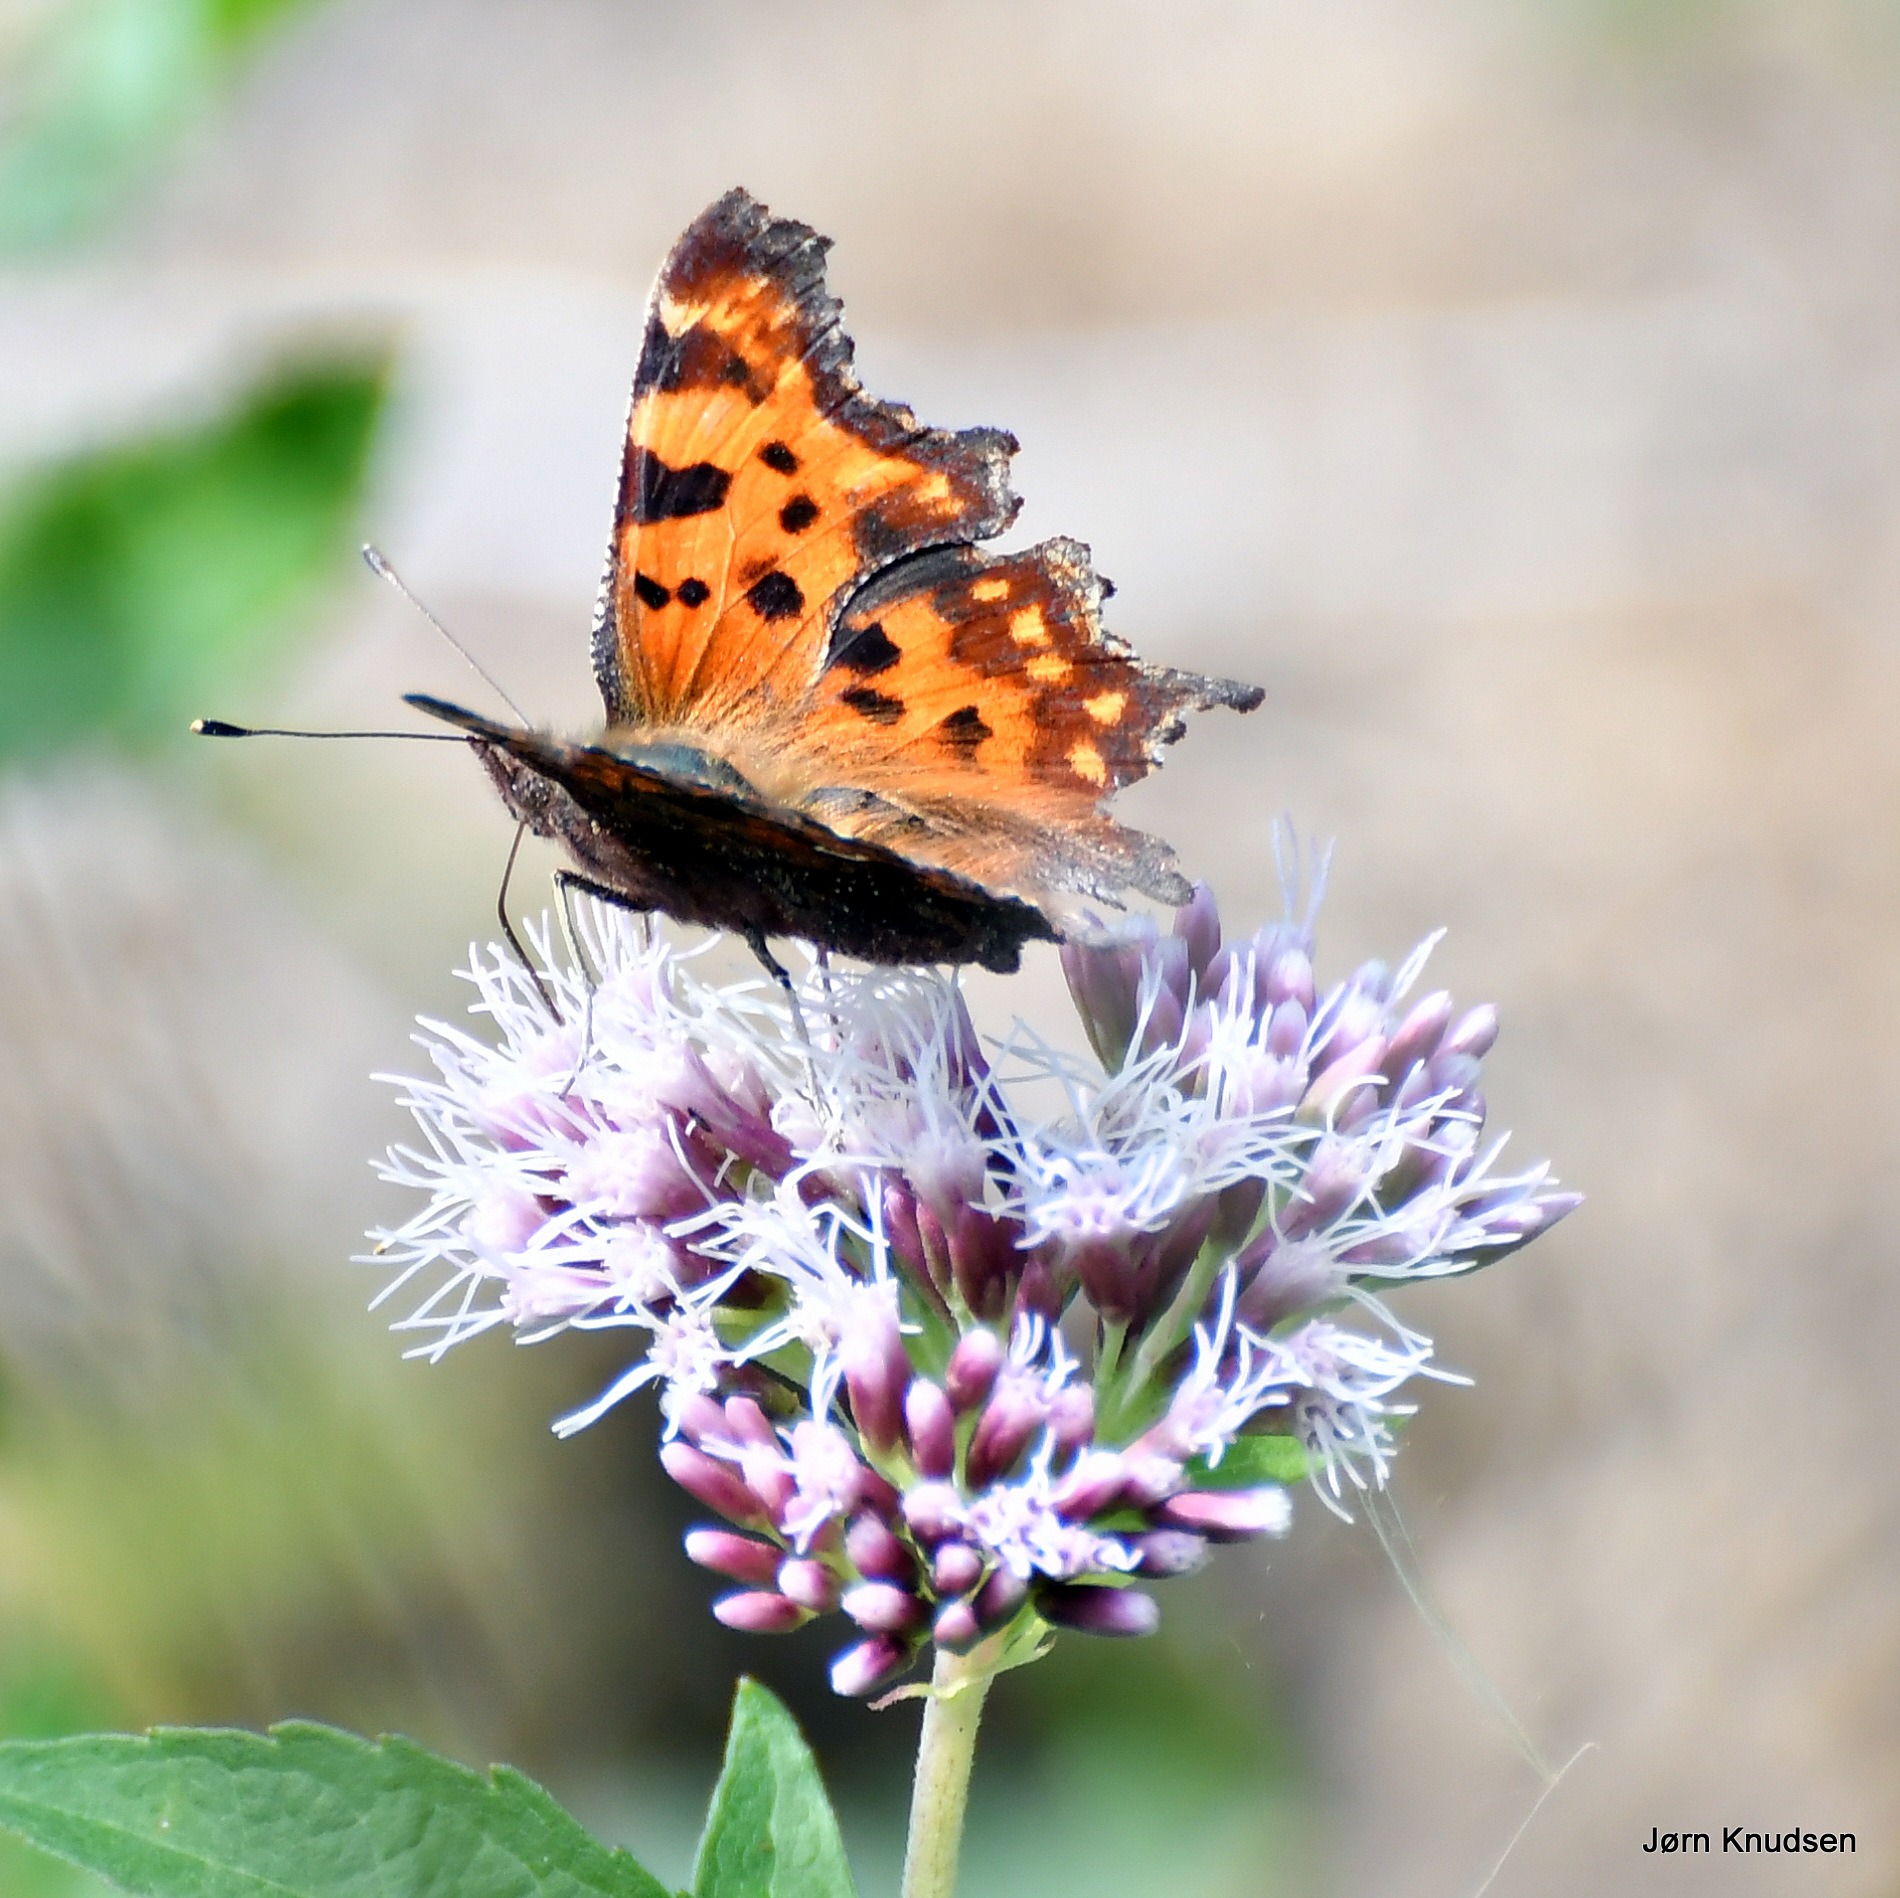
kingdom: Animalia
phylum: Arthropoda
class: Insecta
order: Lepidoptera
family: Nymphalidae
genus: Polygonia
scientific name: Polygonia c-album
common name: Det hvide C
